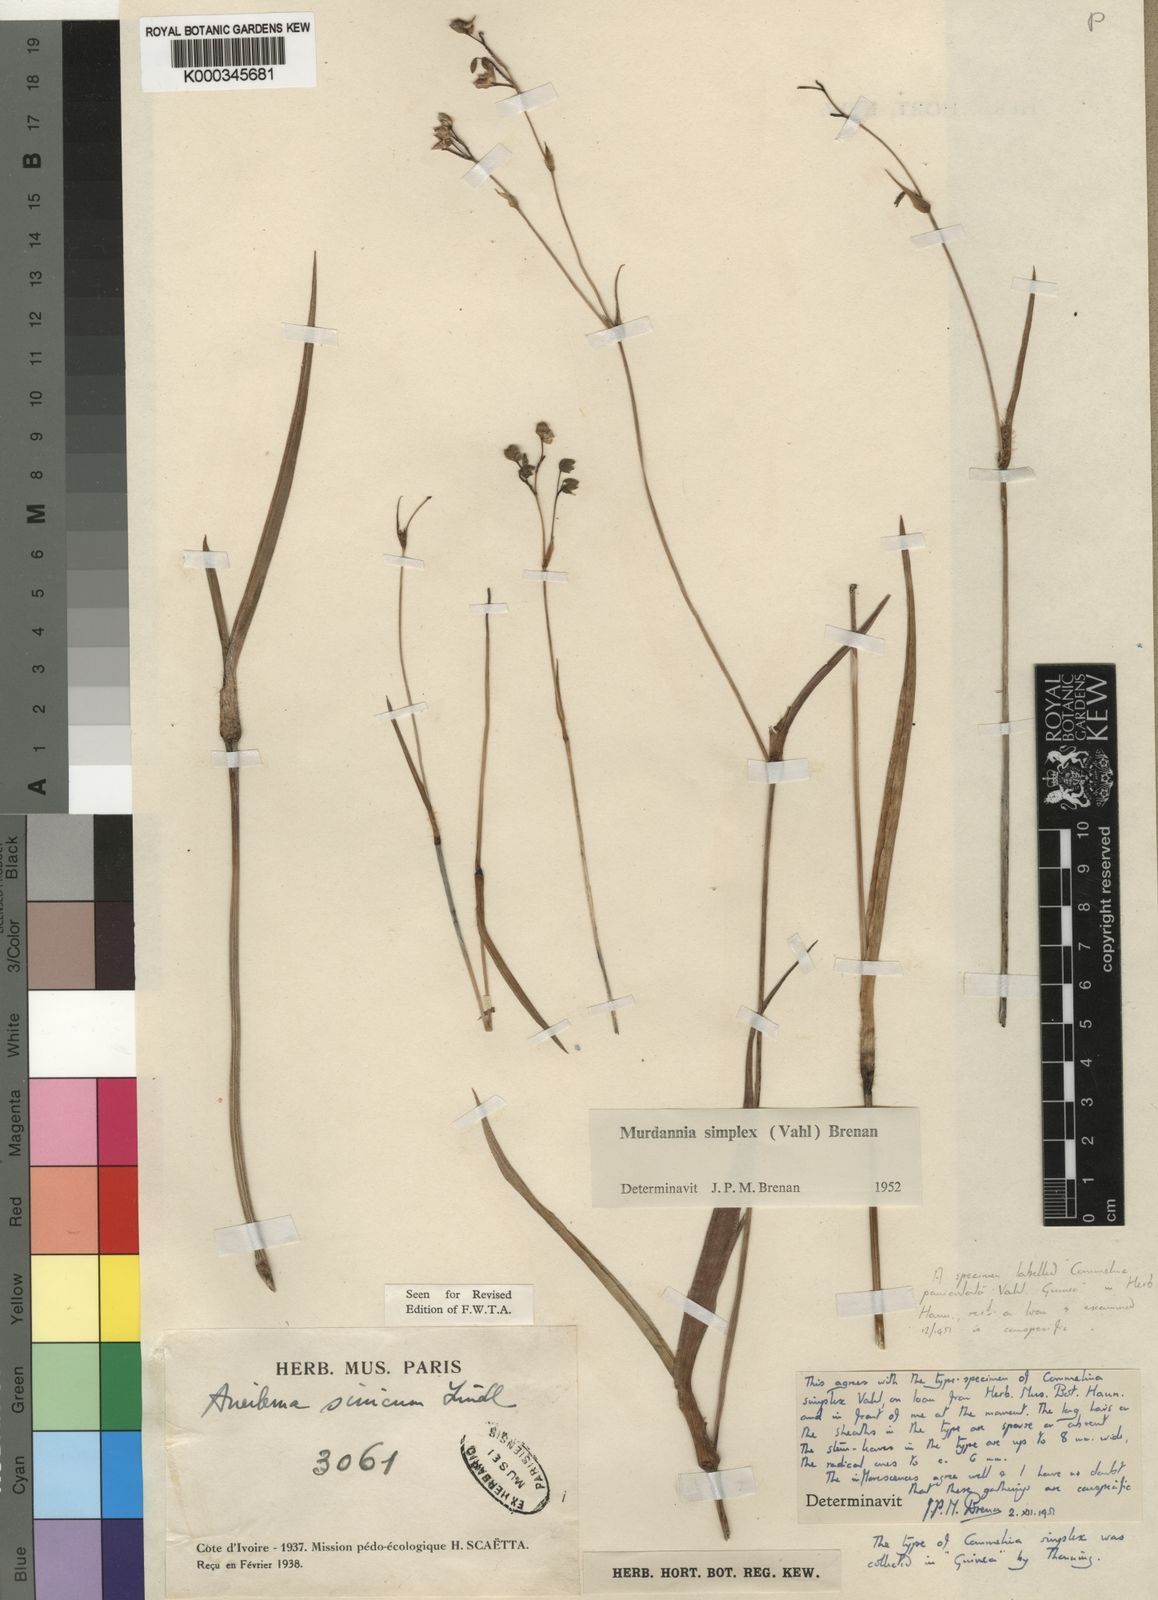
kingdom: Plantae
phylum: Tracheophyta
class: Liliopsida
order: Commelinales
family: Commelinaceae
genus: Murdannia
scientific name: Murdannia simplex
